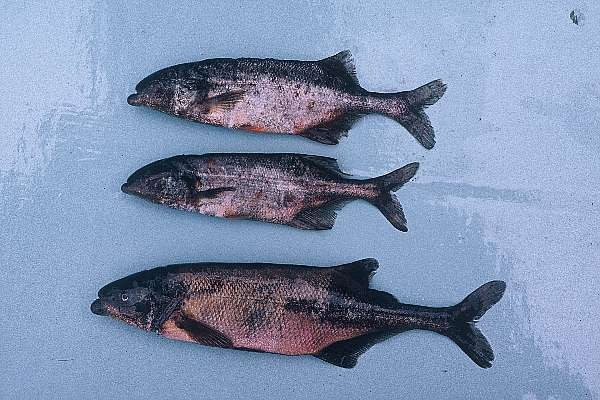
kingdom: Animalia
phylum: Chordata
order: Osteoglossiformes
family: Mormyridae
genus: Marcusenius
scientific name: Marcusenius livingstonii
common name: Livingstone's bulldog
